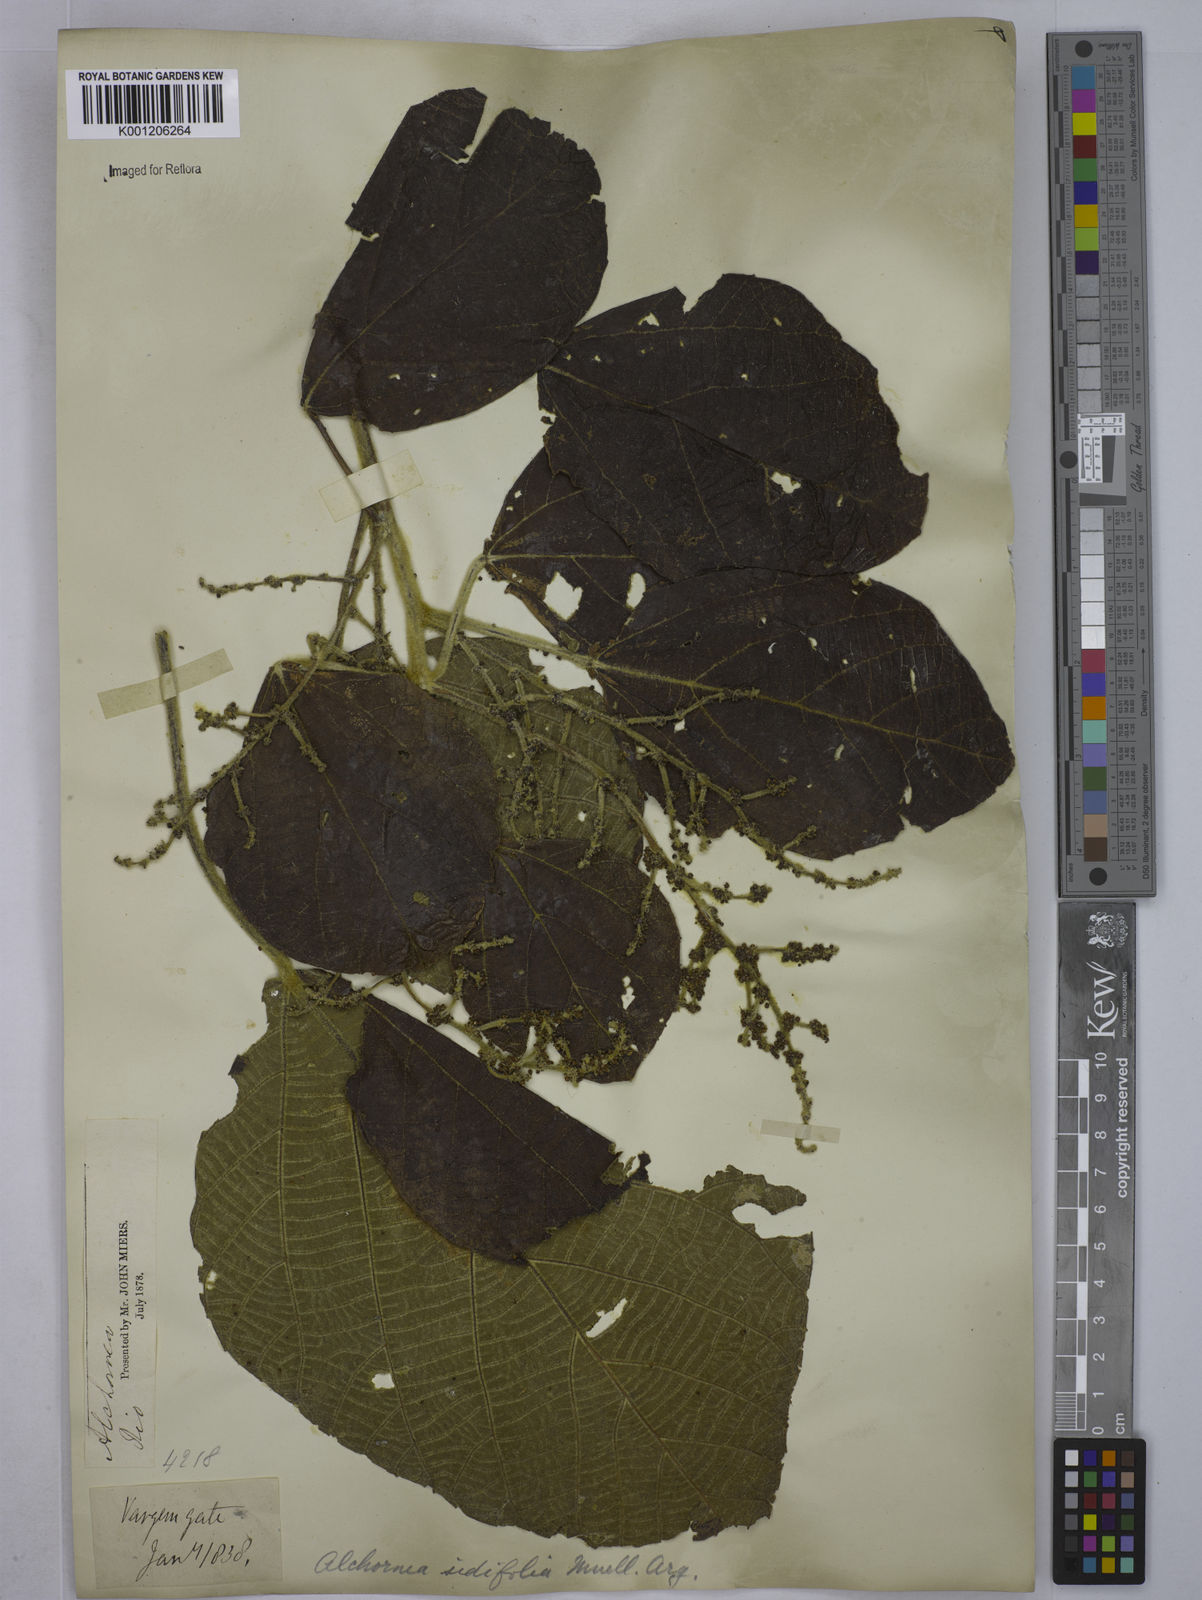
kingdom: Plantae
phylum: Tracheophyta
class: Magnoliopsida
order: Malpighiales
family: Euphorbiaceae
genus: Alchornea
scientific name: Alchornea
